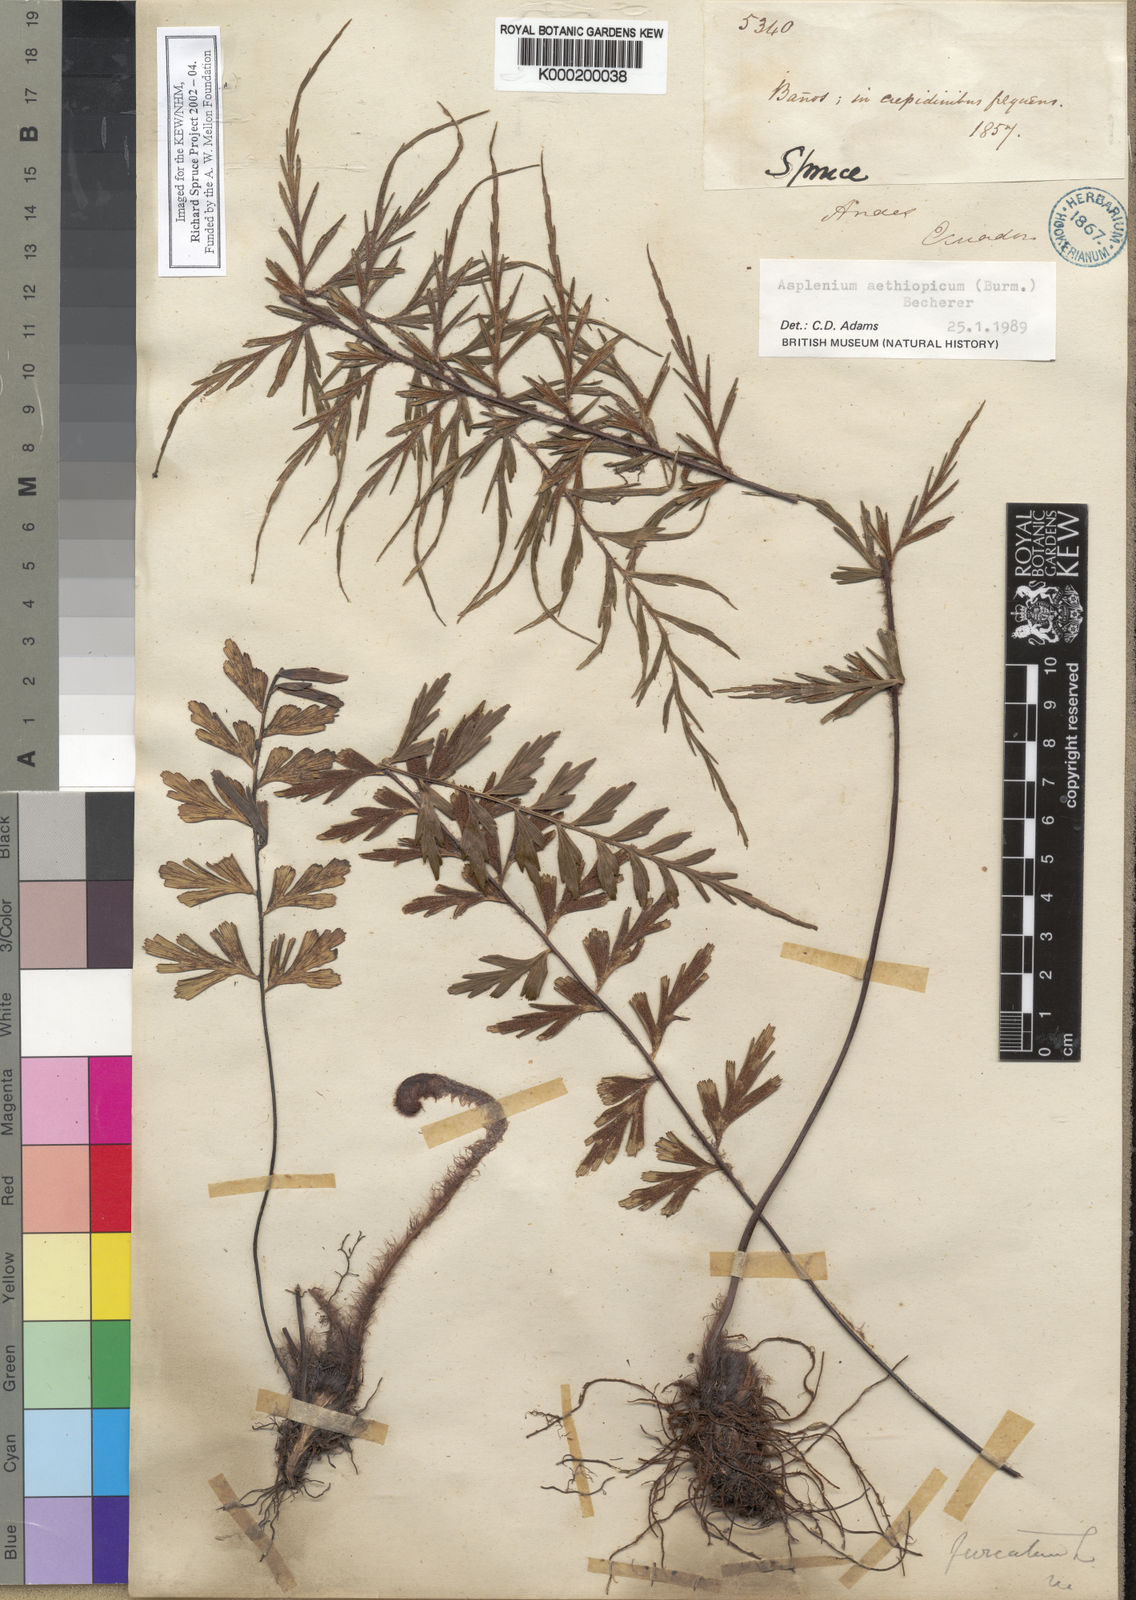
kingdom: Plantae
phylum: Tracheophyta
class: Polypodiopsida
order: Polypodiales
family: Aspleniaceae
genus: Asplenium
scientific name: Asplenium aethiopicum
